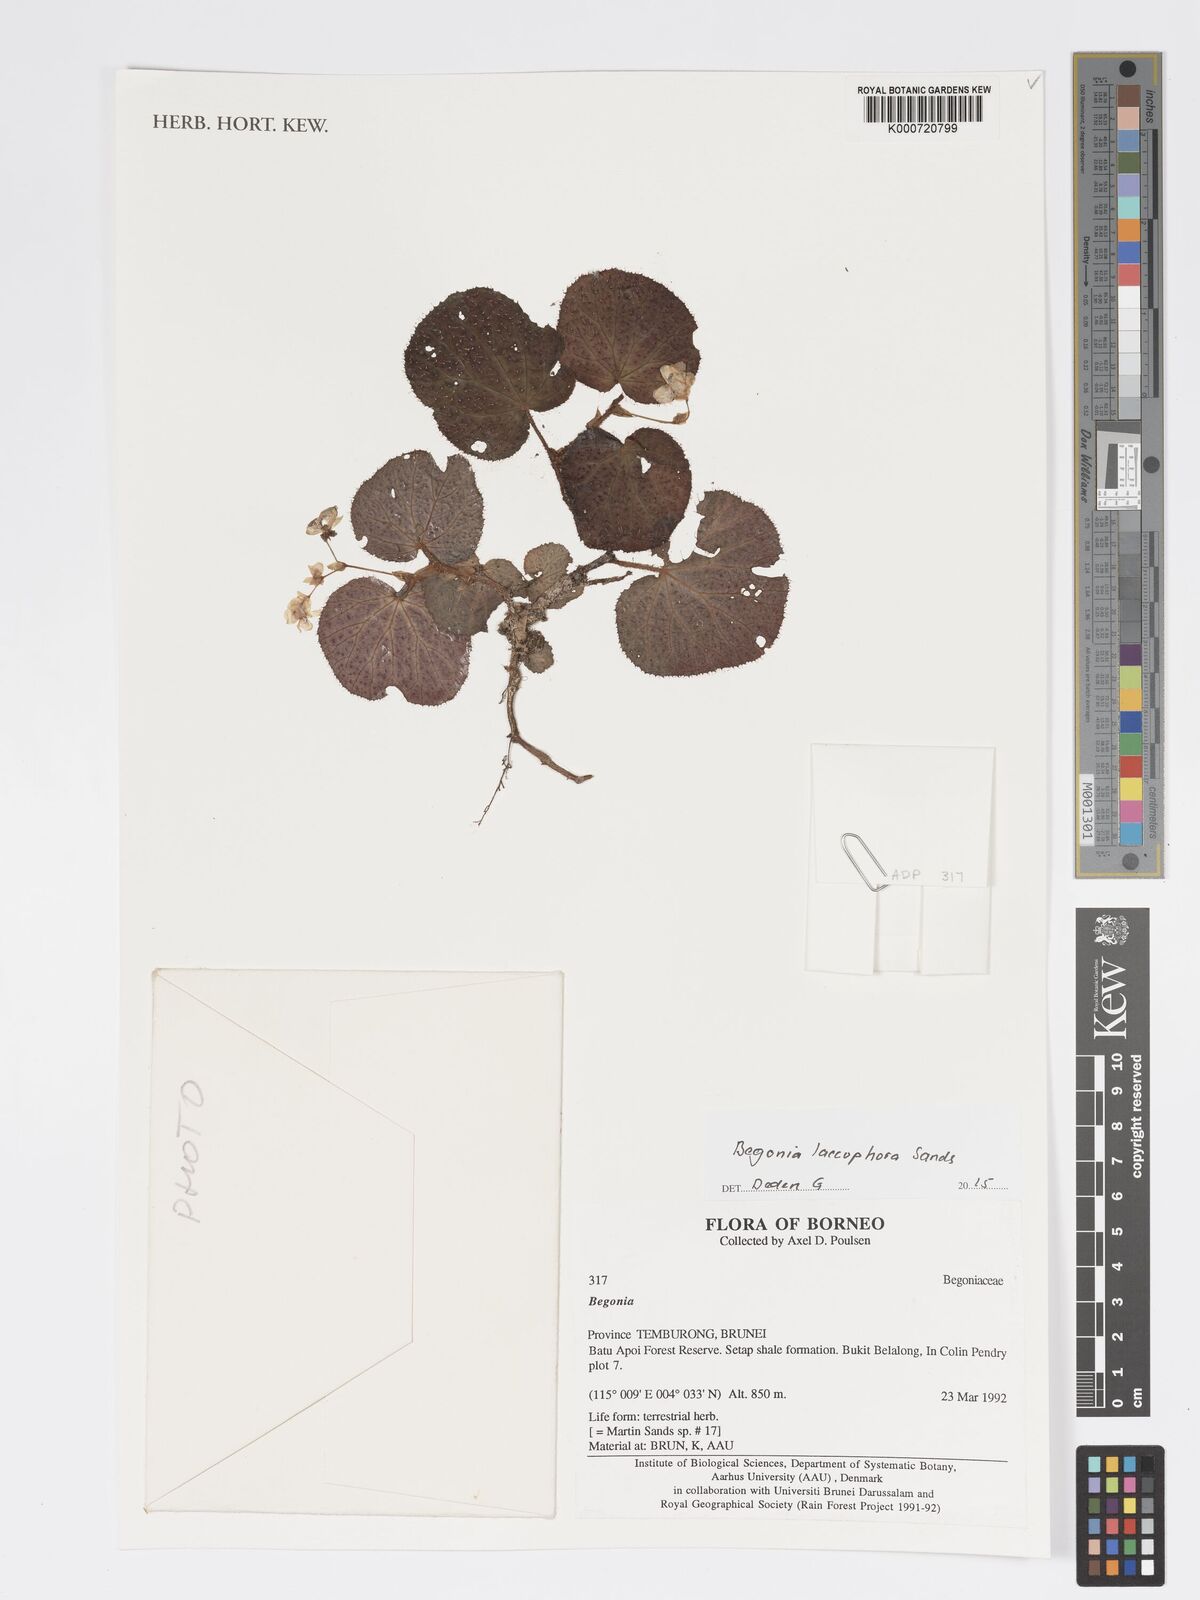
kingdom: Plantae
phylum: Tracheophyta
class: Magnoliopsida
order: Cucurbitales
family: Begoniaceae
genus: Begonia
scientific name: Begonia laccophora
